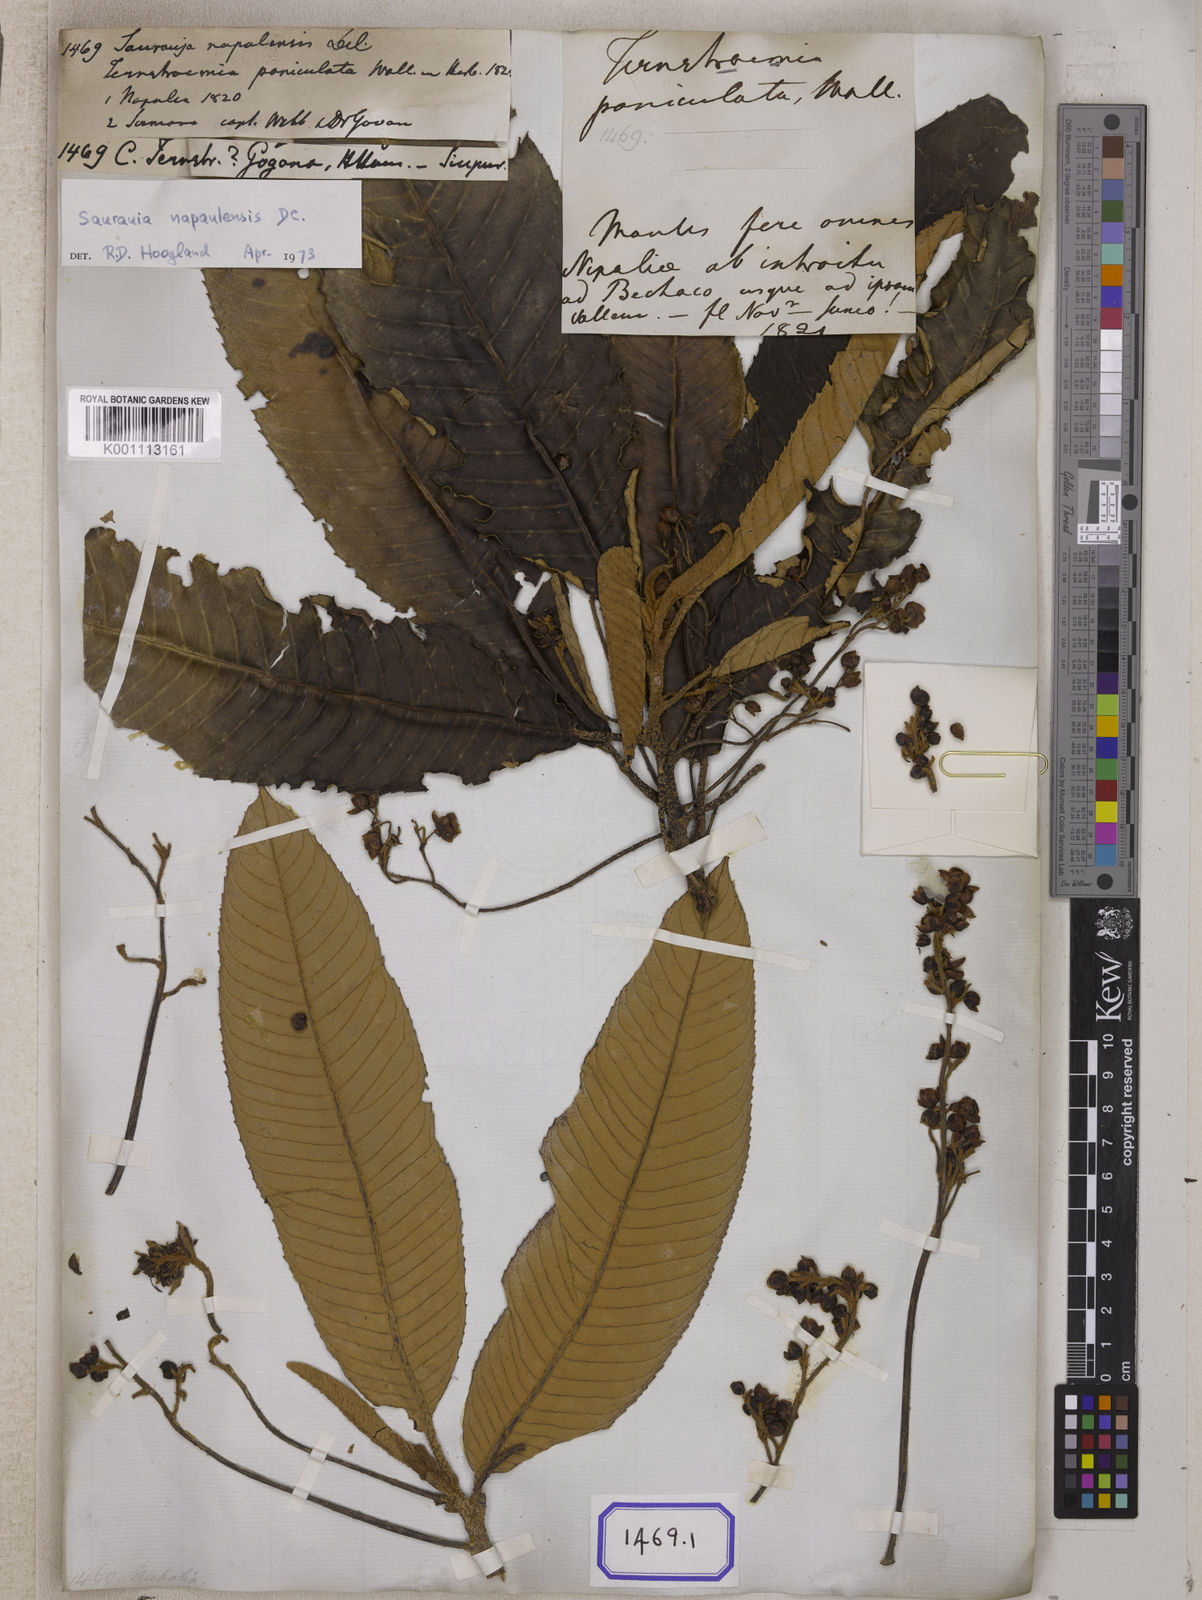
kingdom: Plantae
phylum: Tracheophyta
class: Magnoliopsida
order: Ericales
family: Actinidiaceae
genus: Saurauia
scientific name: Saurauia
